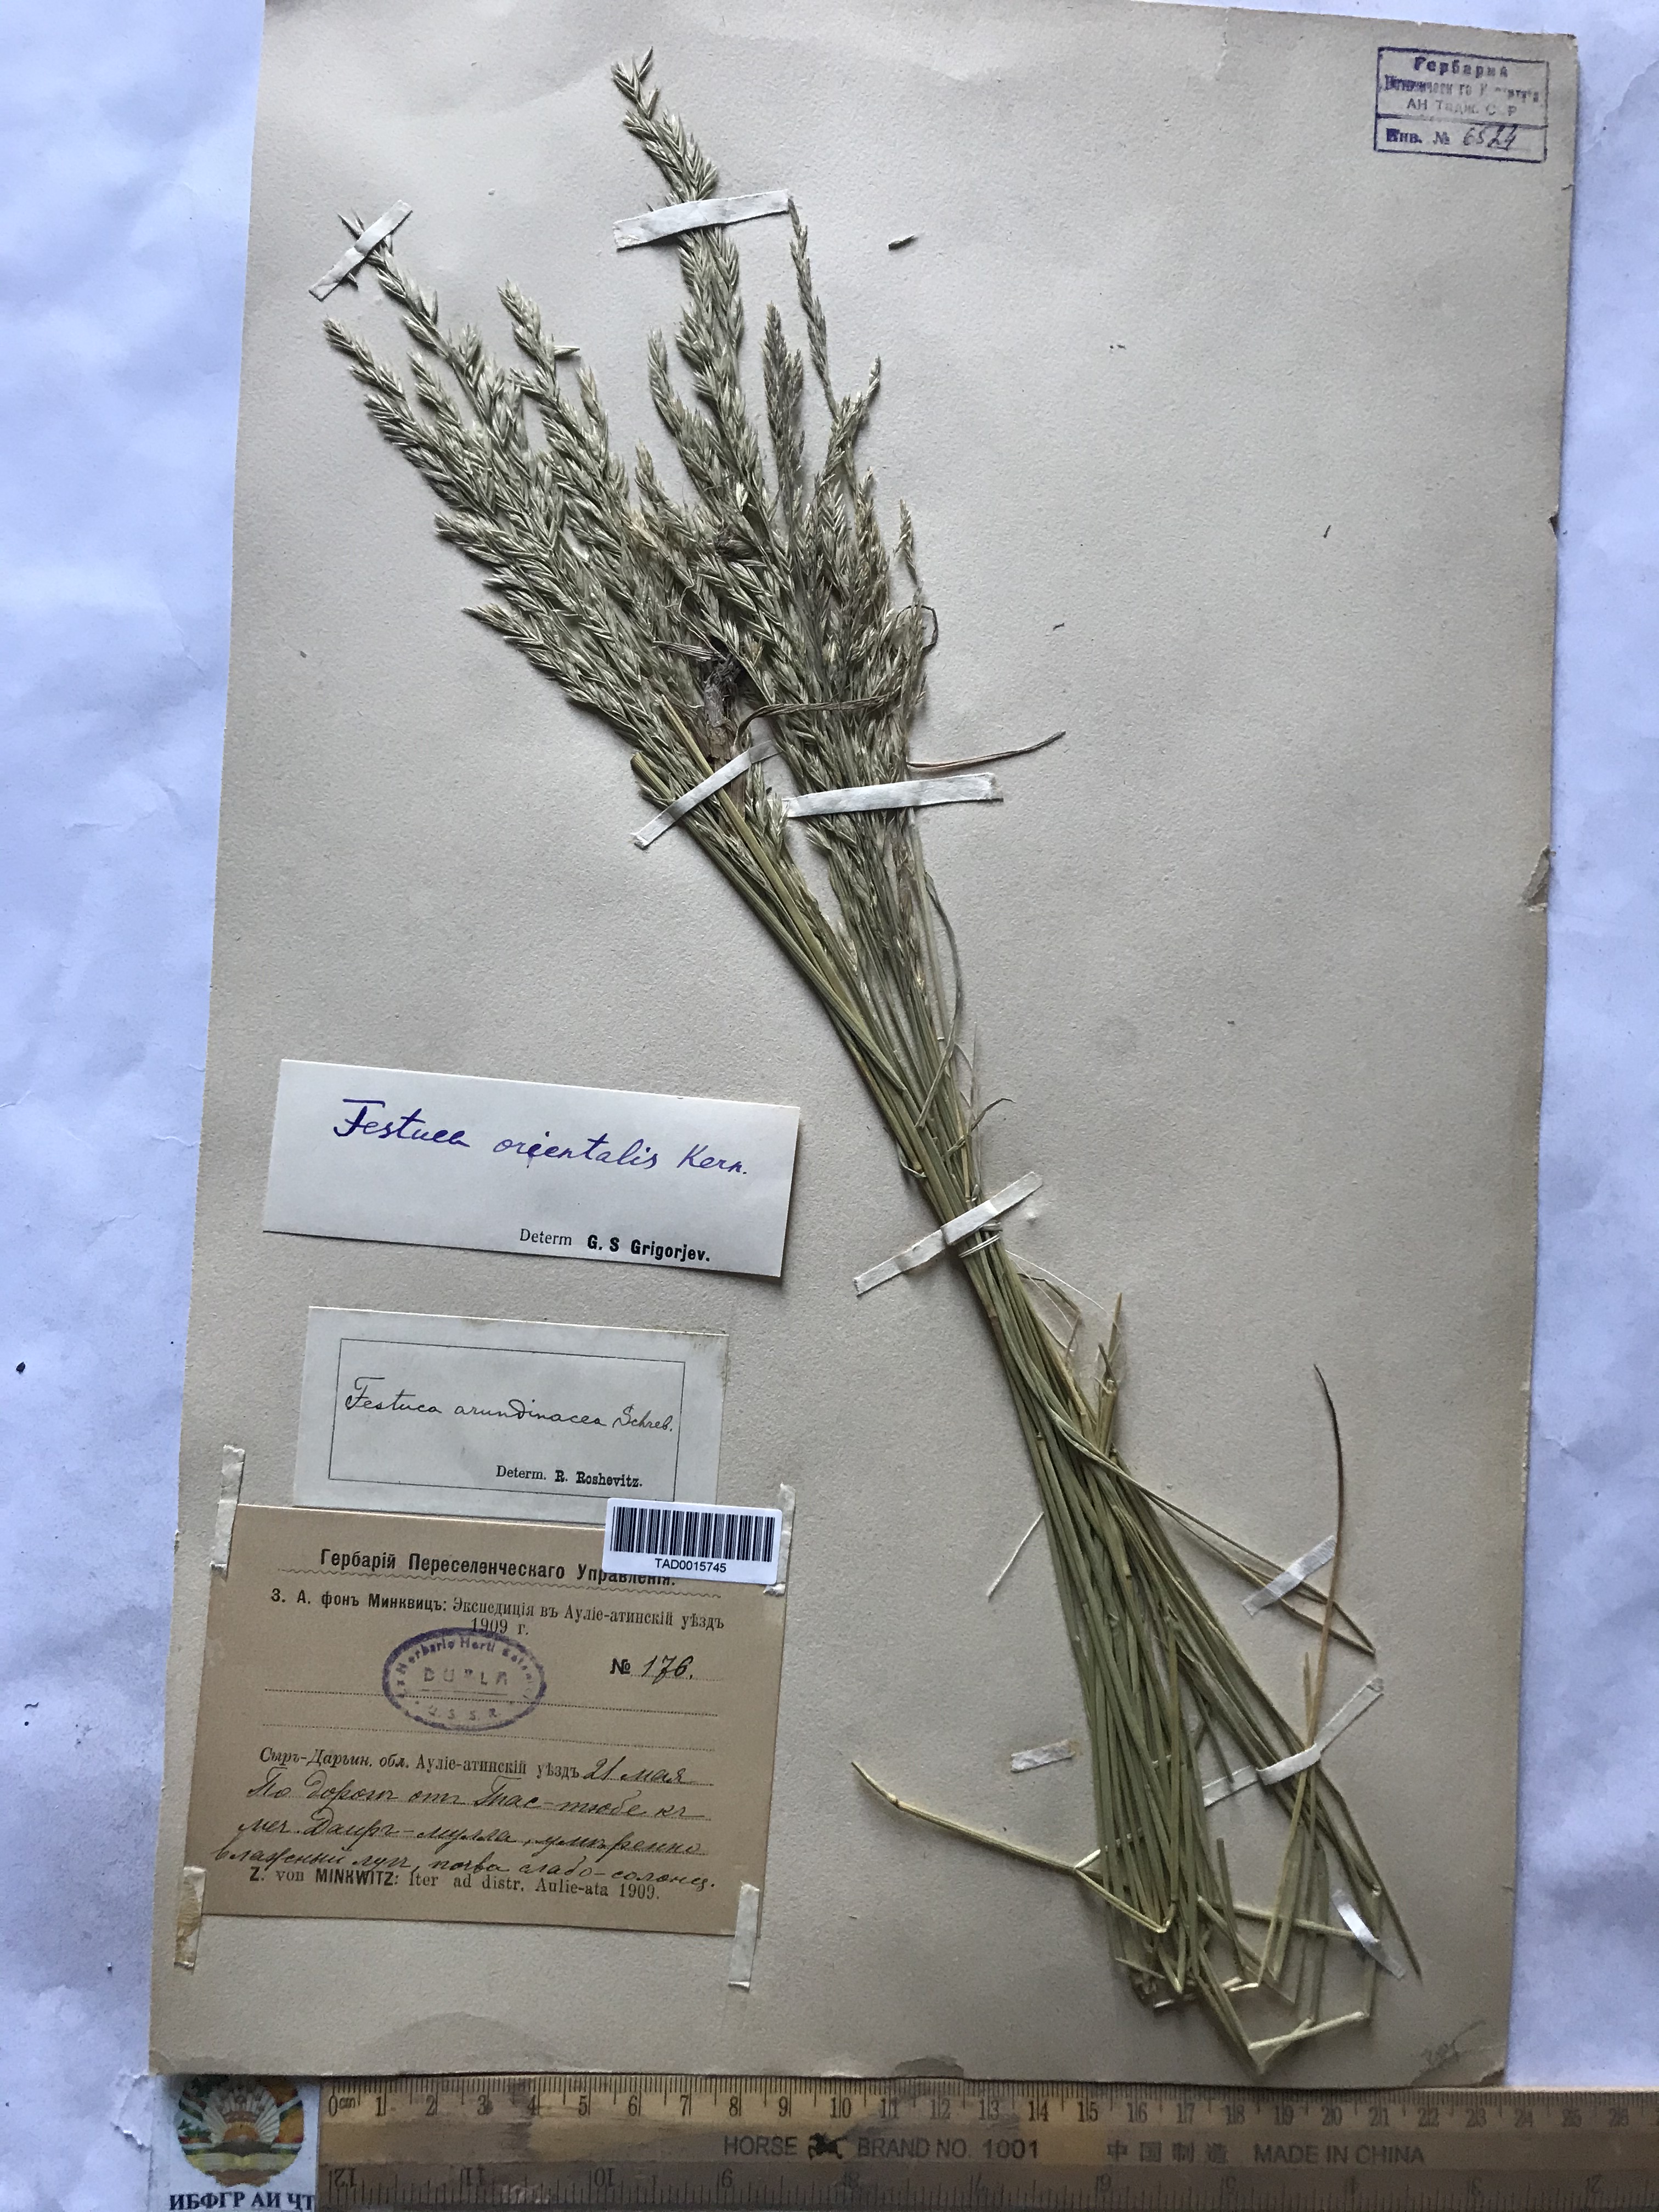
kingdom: Plantae
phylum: Tracheophyta
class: Liliopsida
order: Poales
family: Poaceae
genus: Lolium
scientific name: Lolium arundinaceum
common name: Reed fescue
